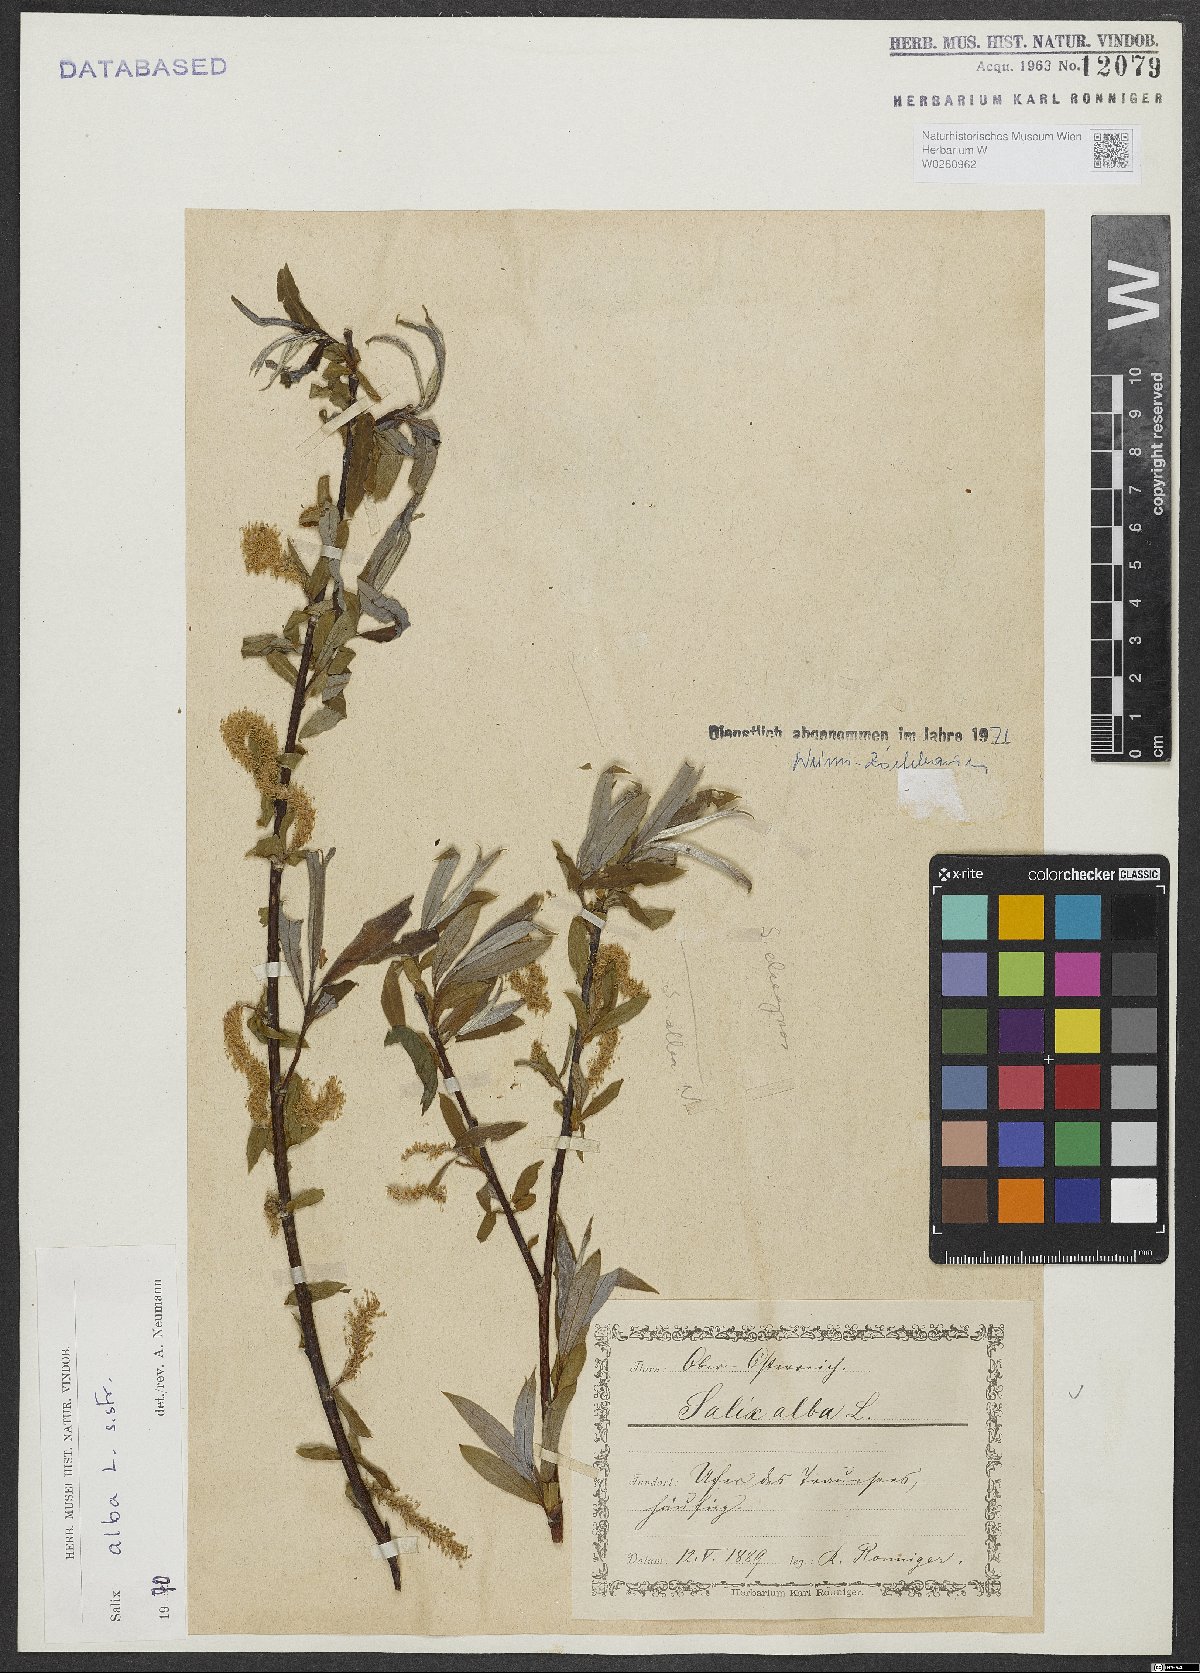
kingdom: Plantae
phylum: Tracheophyta
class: Magnoliopsida
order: Malpighiales
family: Salicaceae
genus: Salix
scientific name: Salix alba
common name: White willow
